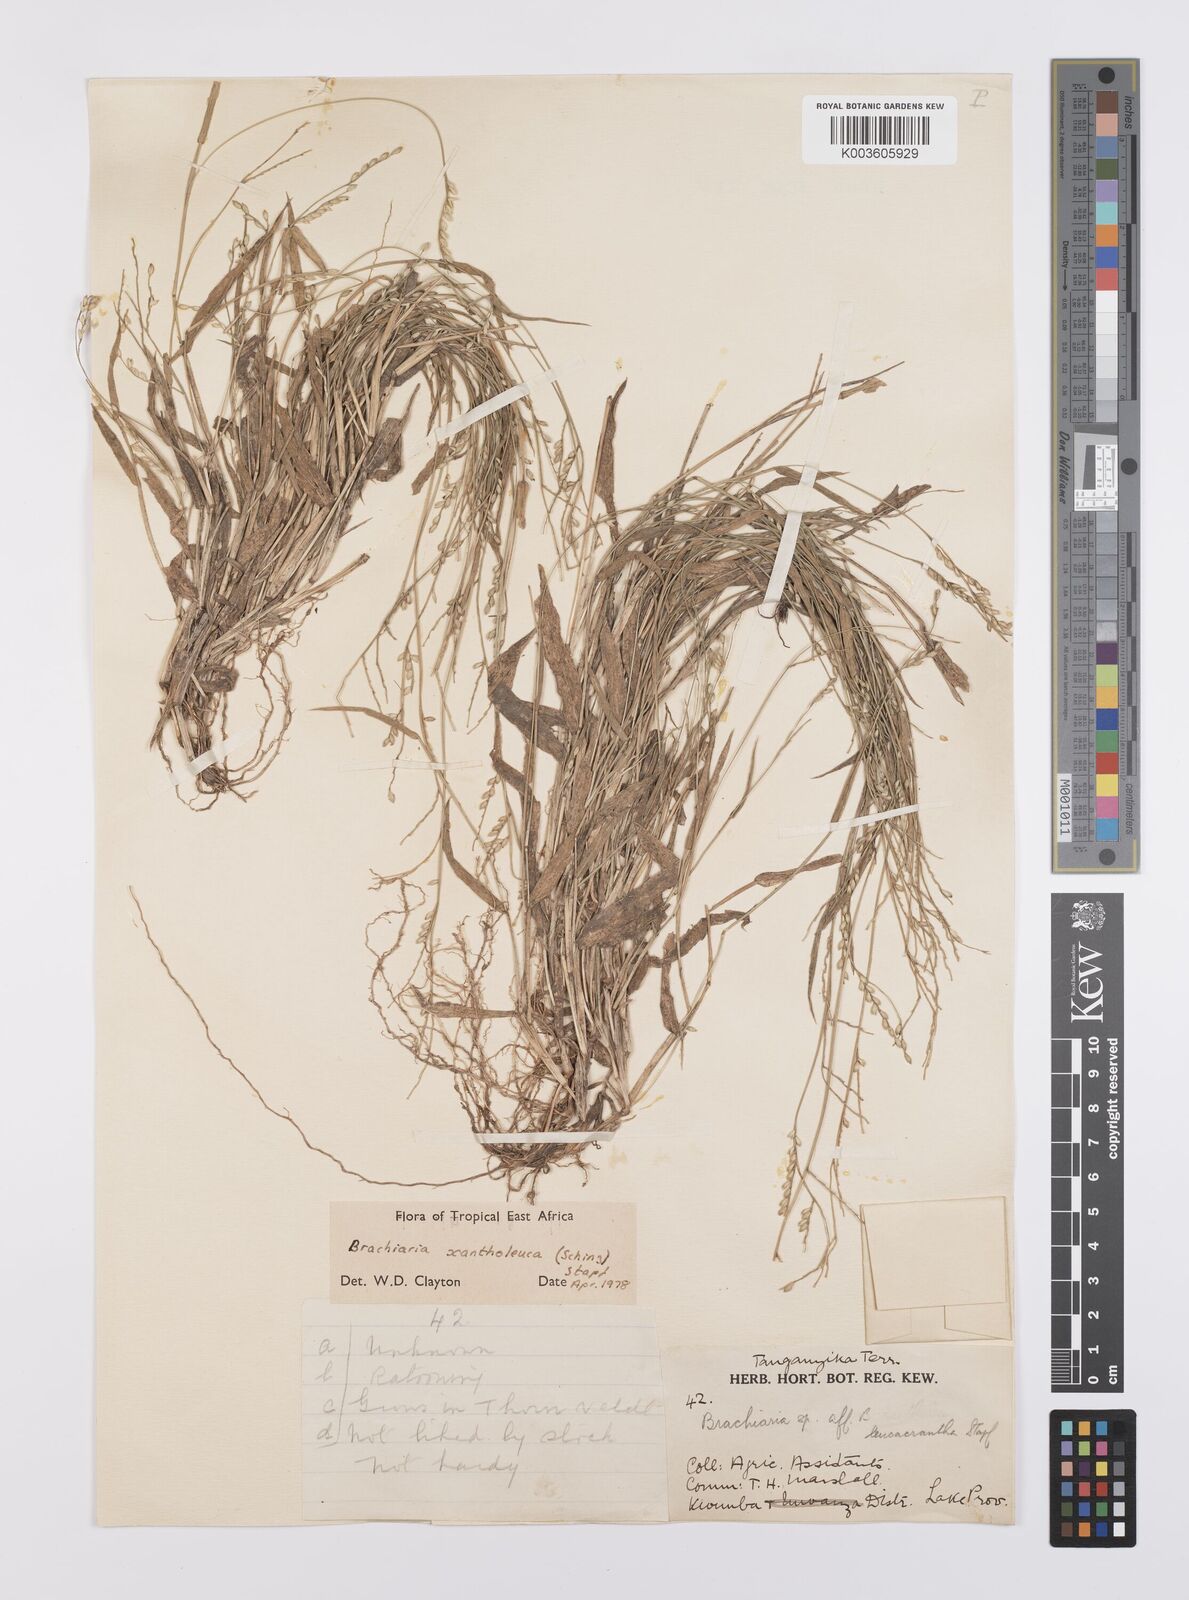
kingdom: Plantae
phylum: Tracheophyta
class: Liliopsida
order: Poales
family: Poaceae
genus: Urochloa
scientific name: Urochloa xantholeuca
